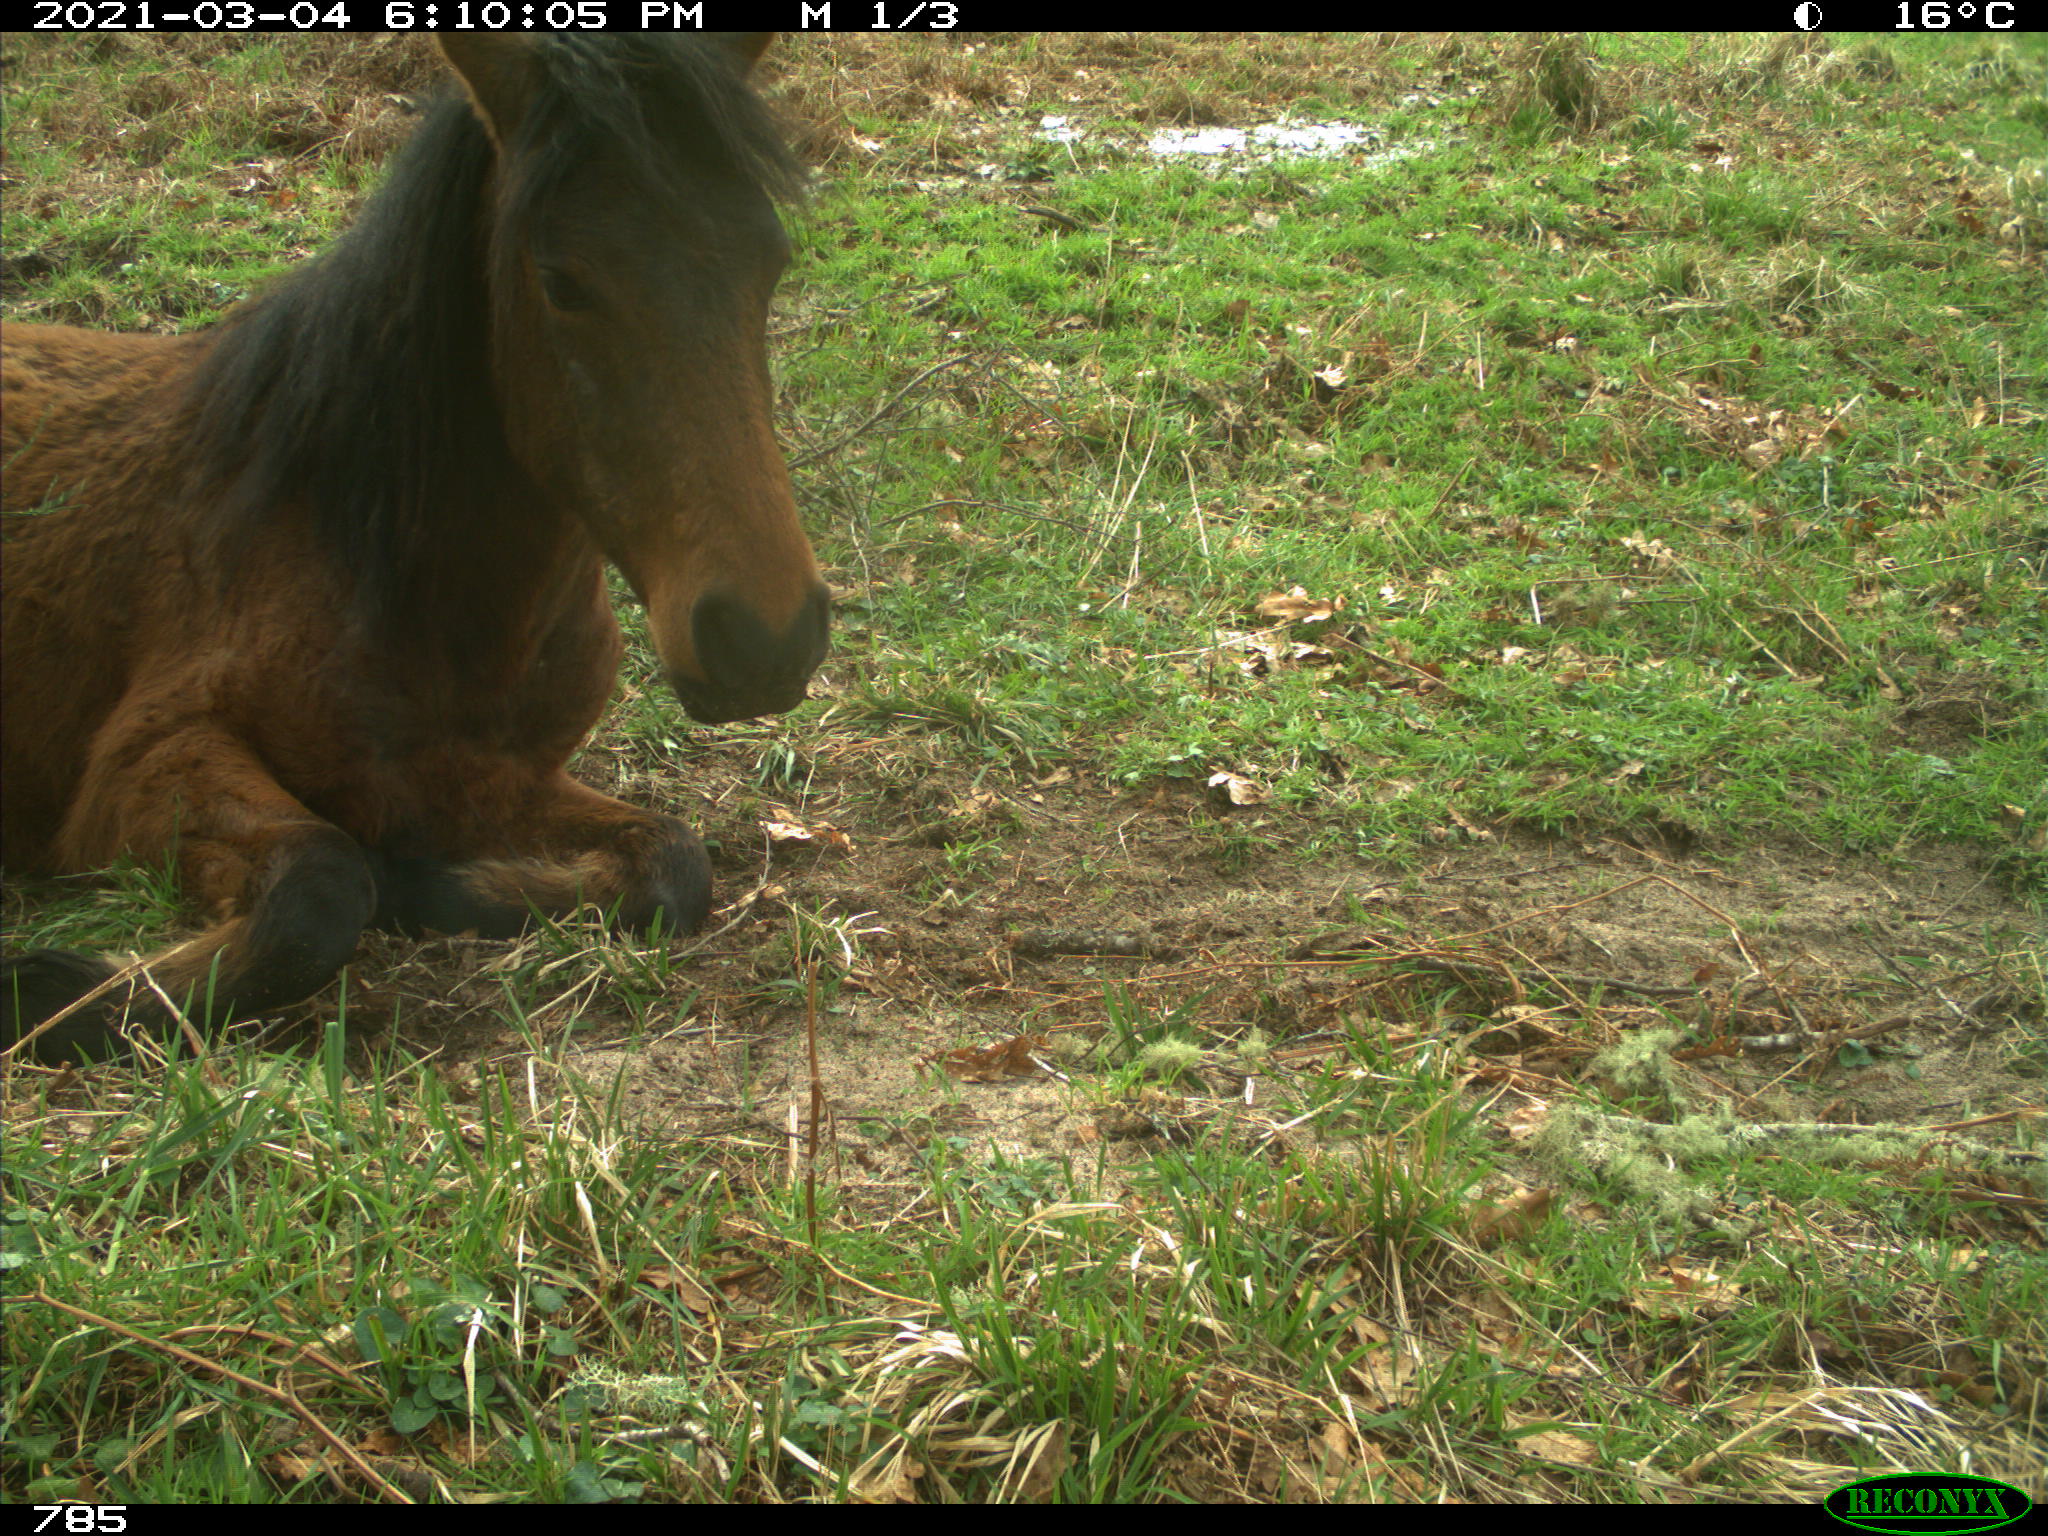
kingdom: Animalia
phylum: Chordata
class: Mammalia
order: Perissodactyla
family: Equidae
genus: Equus
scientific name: Equus caballus
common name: Horse
